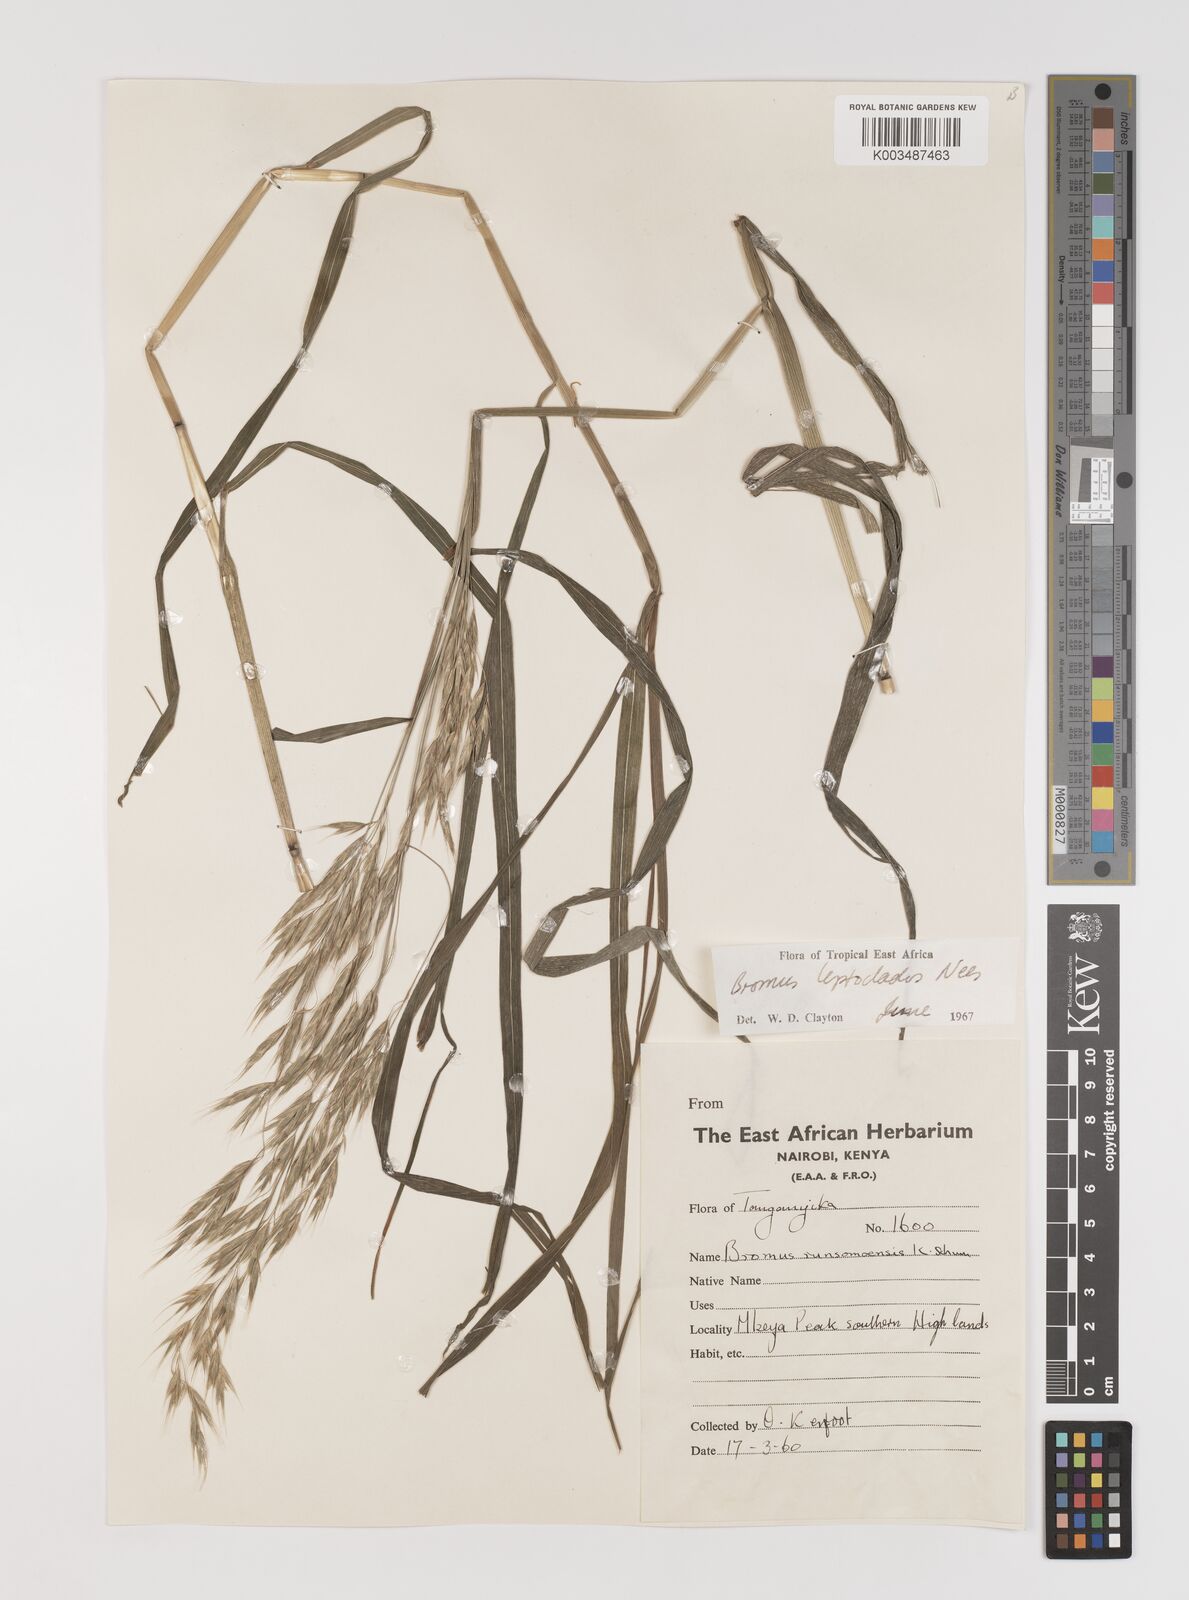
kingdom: Plantae
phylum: Tracheophyta
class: Liliopsida
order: Poales
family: Poaceae
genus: Bromus
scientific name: Bromus leptoclados
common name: Mountain bromegrass
